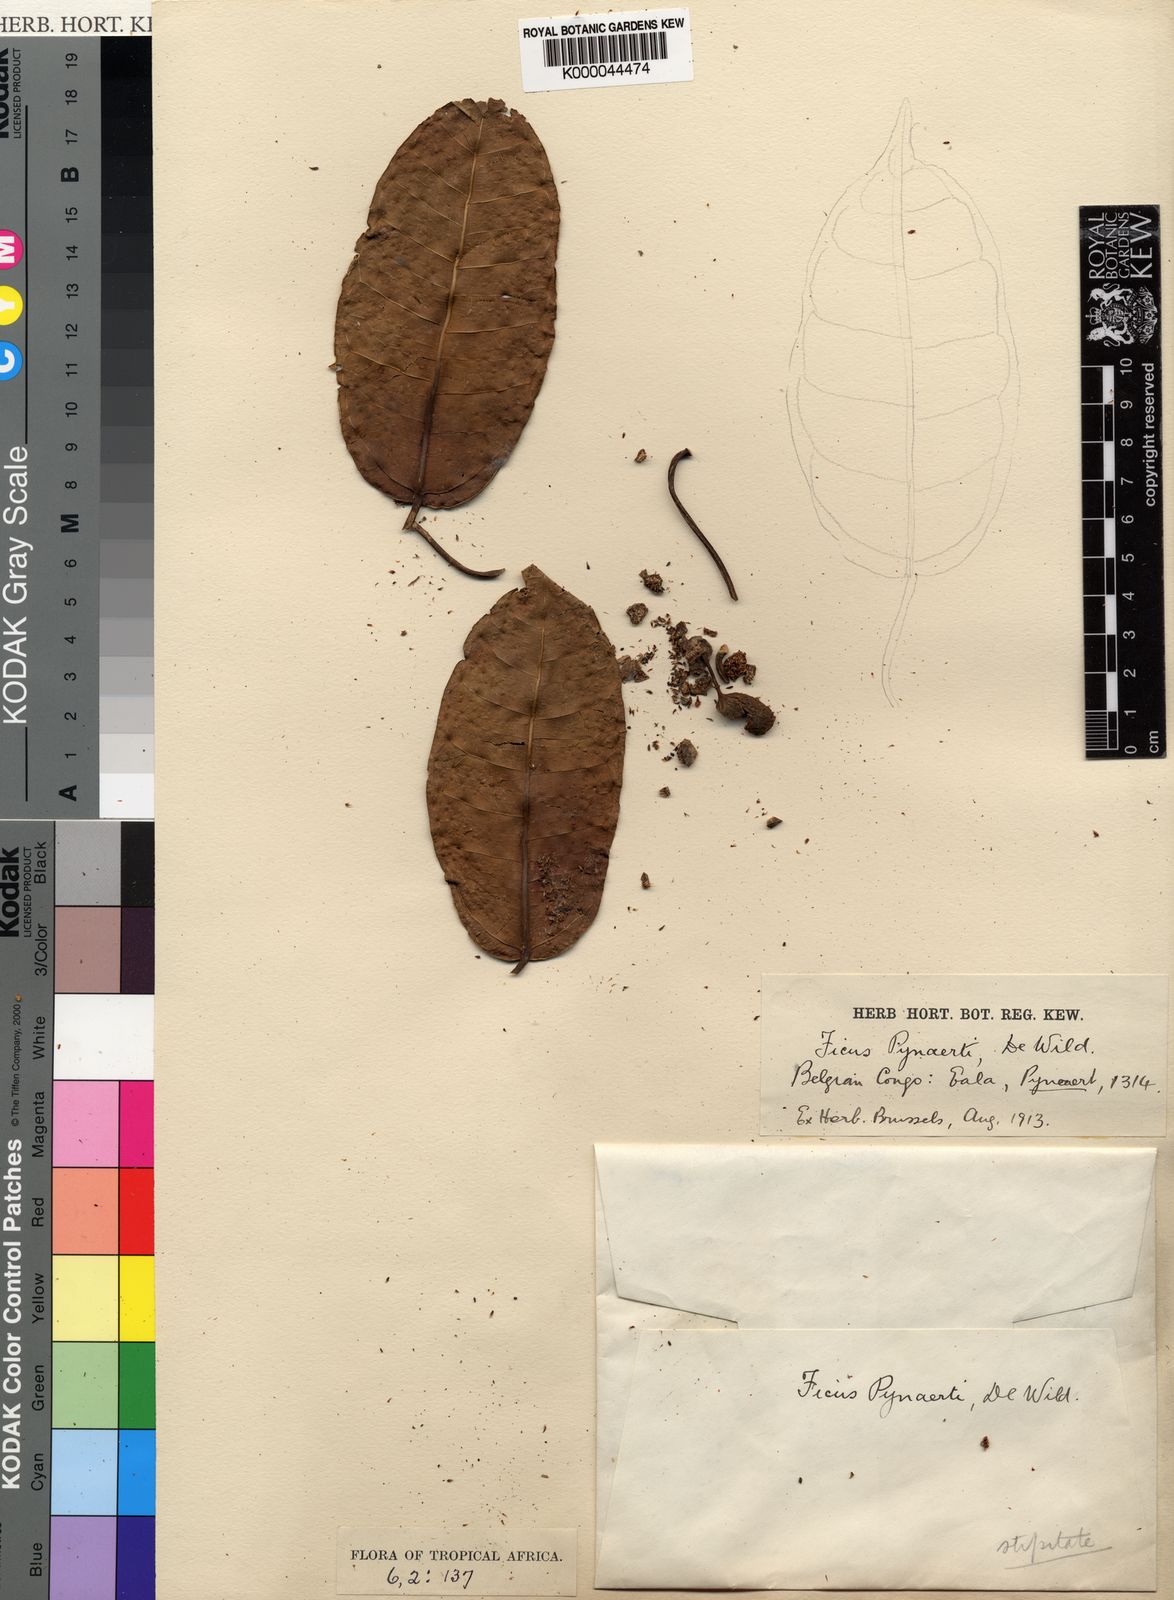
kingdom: Plantae
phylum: Tracheophyta
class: Magnoliopsida
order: Rosales
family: Moraceae
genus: Ficus
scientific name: Ficus ottoniifolia
